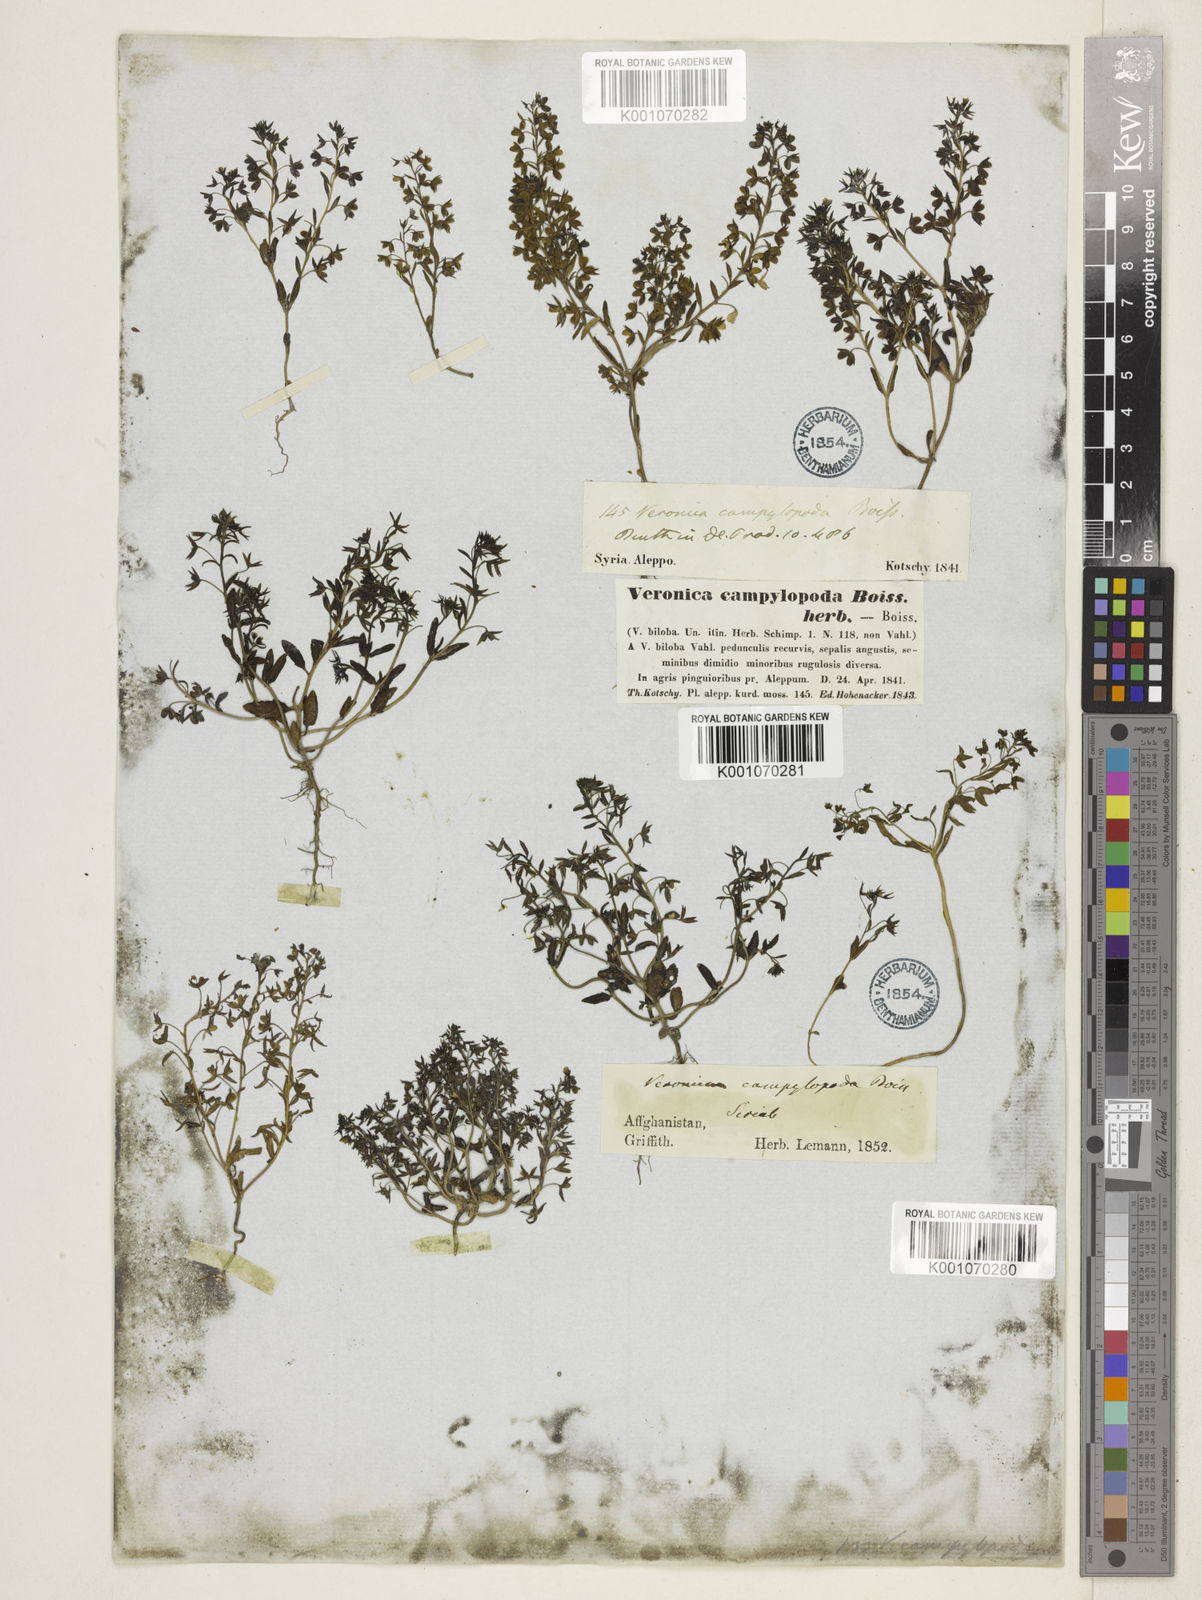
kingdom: Plantae
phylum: Tracheophyta
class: Magnoliopsida
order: Lamiales
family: Plantaginaceae
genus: Veronica
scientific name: Veronica campylopoda
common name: Bent-foot speedwell
